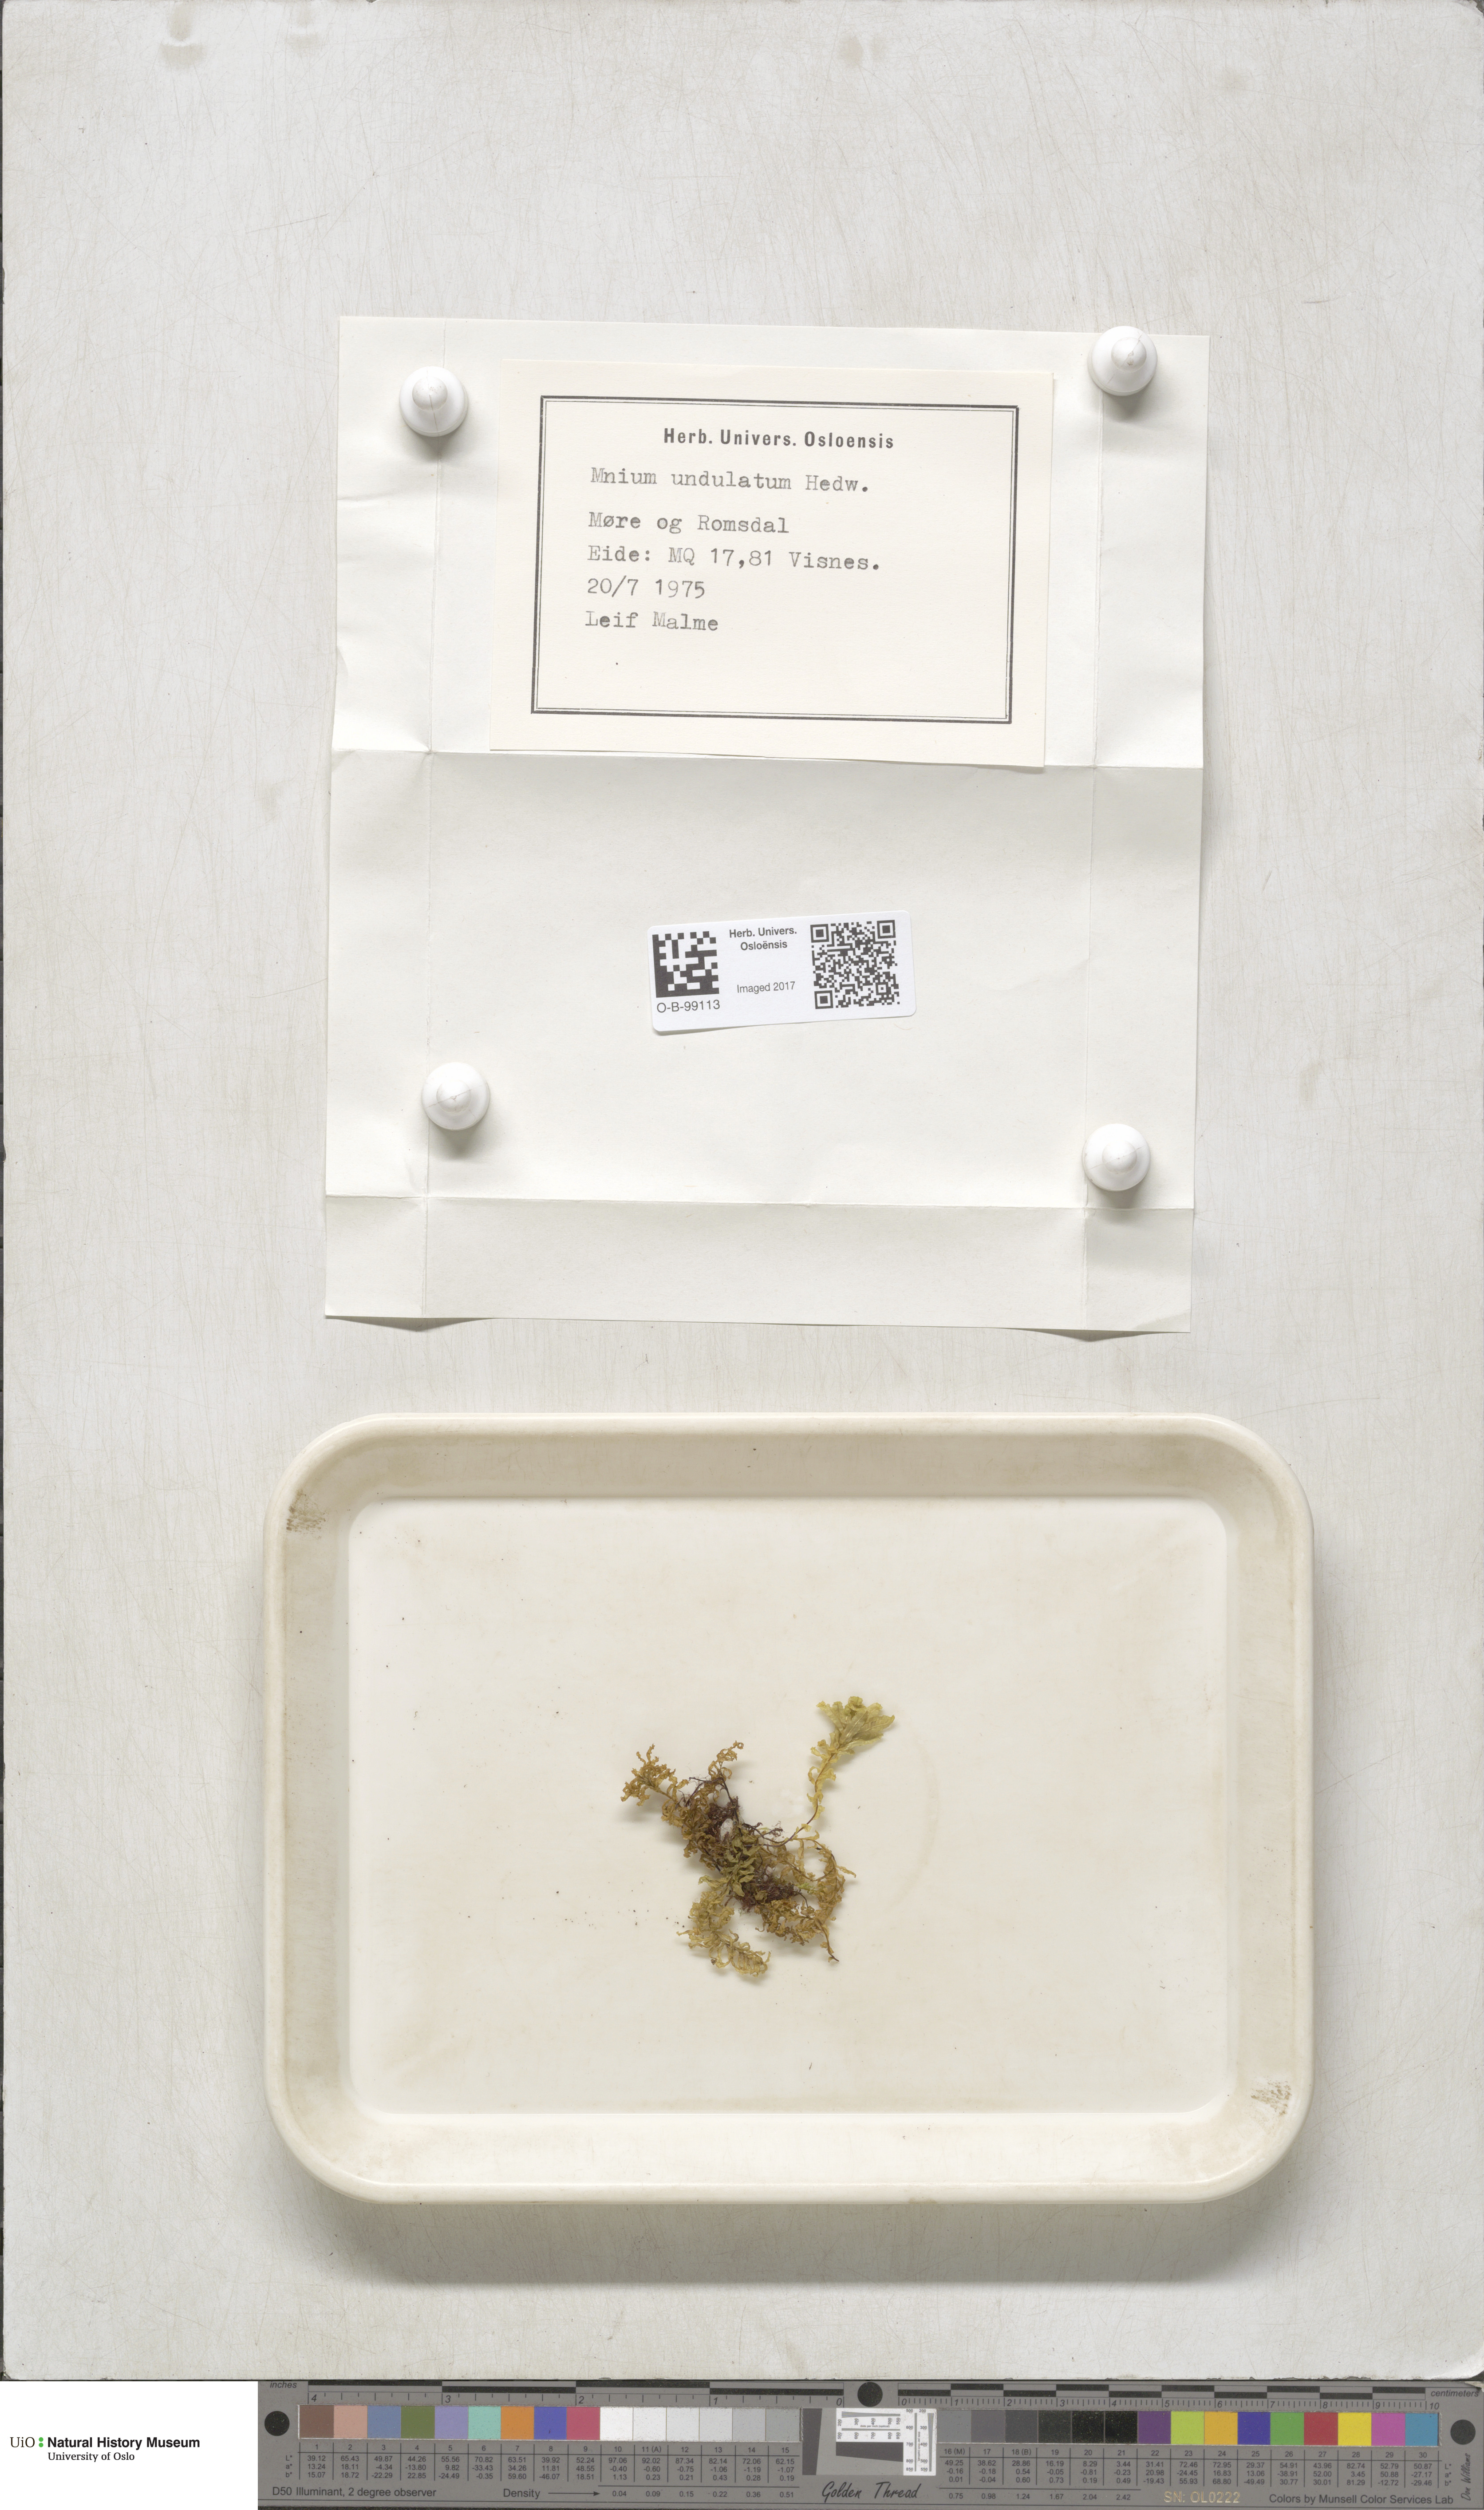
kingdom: Plantae
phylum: Bryophyta
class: Bryopsida
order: Bryales
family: Mniaceae
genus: Plagiomnium
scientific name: Plagiomnium undulatum
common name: Hart's-tongue thyme-moss
